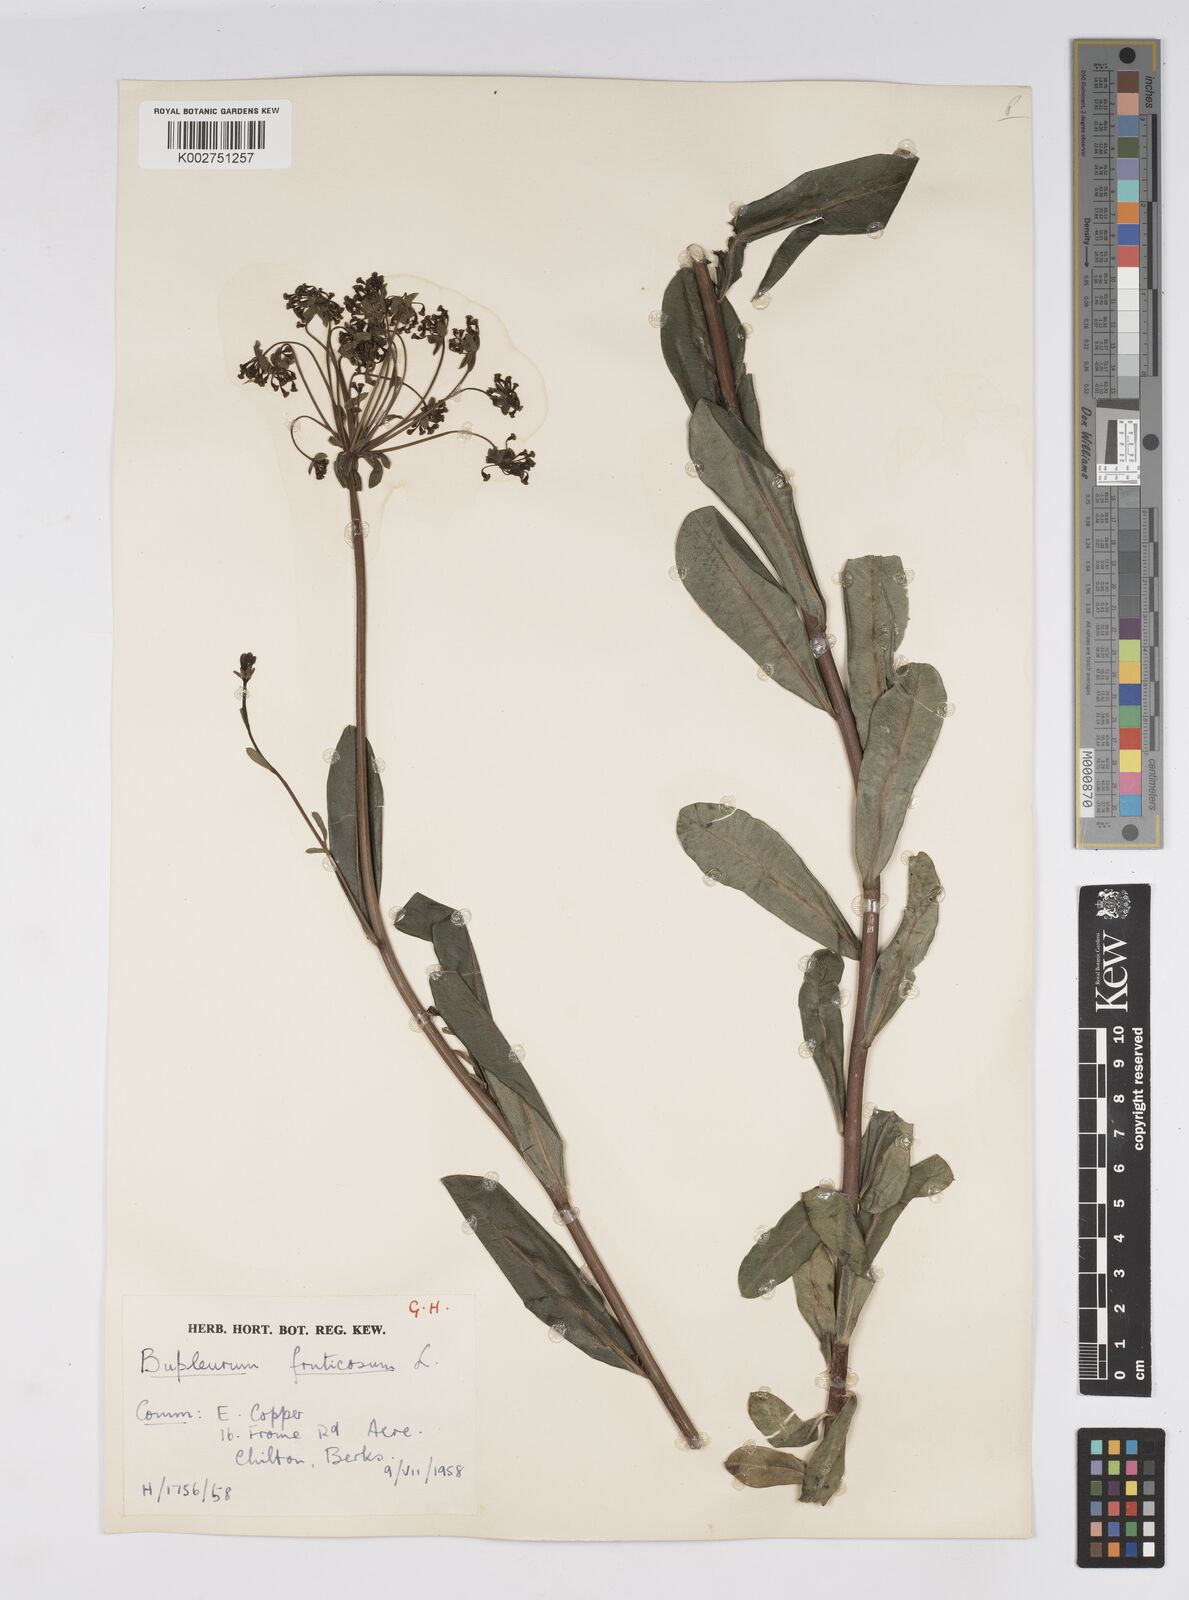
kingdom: Plantae
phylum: Tracheophyta
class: Magnoliopsida
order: Apiales
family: Apiaceae
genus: Bupleurum
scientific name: Bupleurum fruticosum
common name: Shrubby hare's-ear
